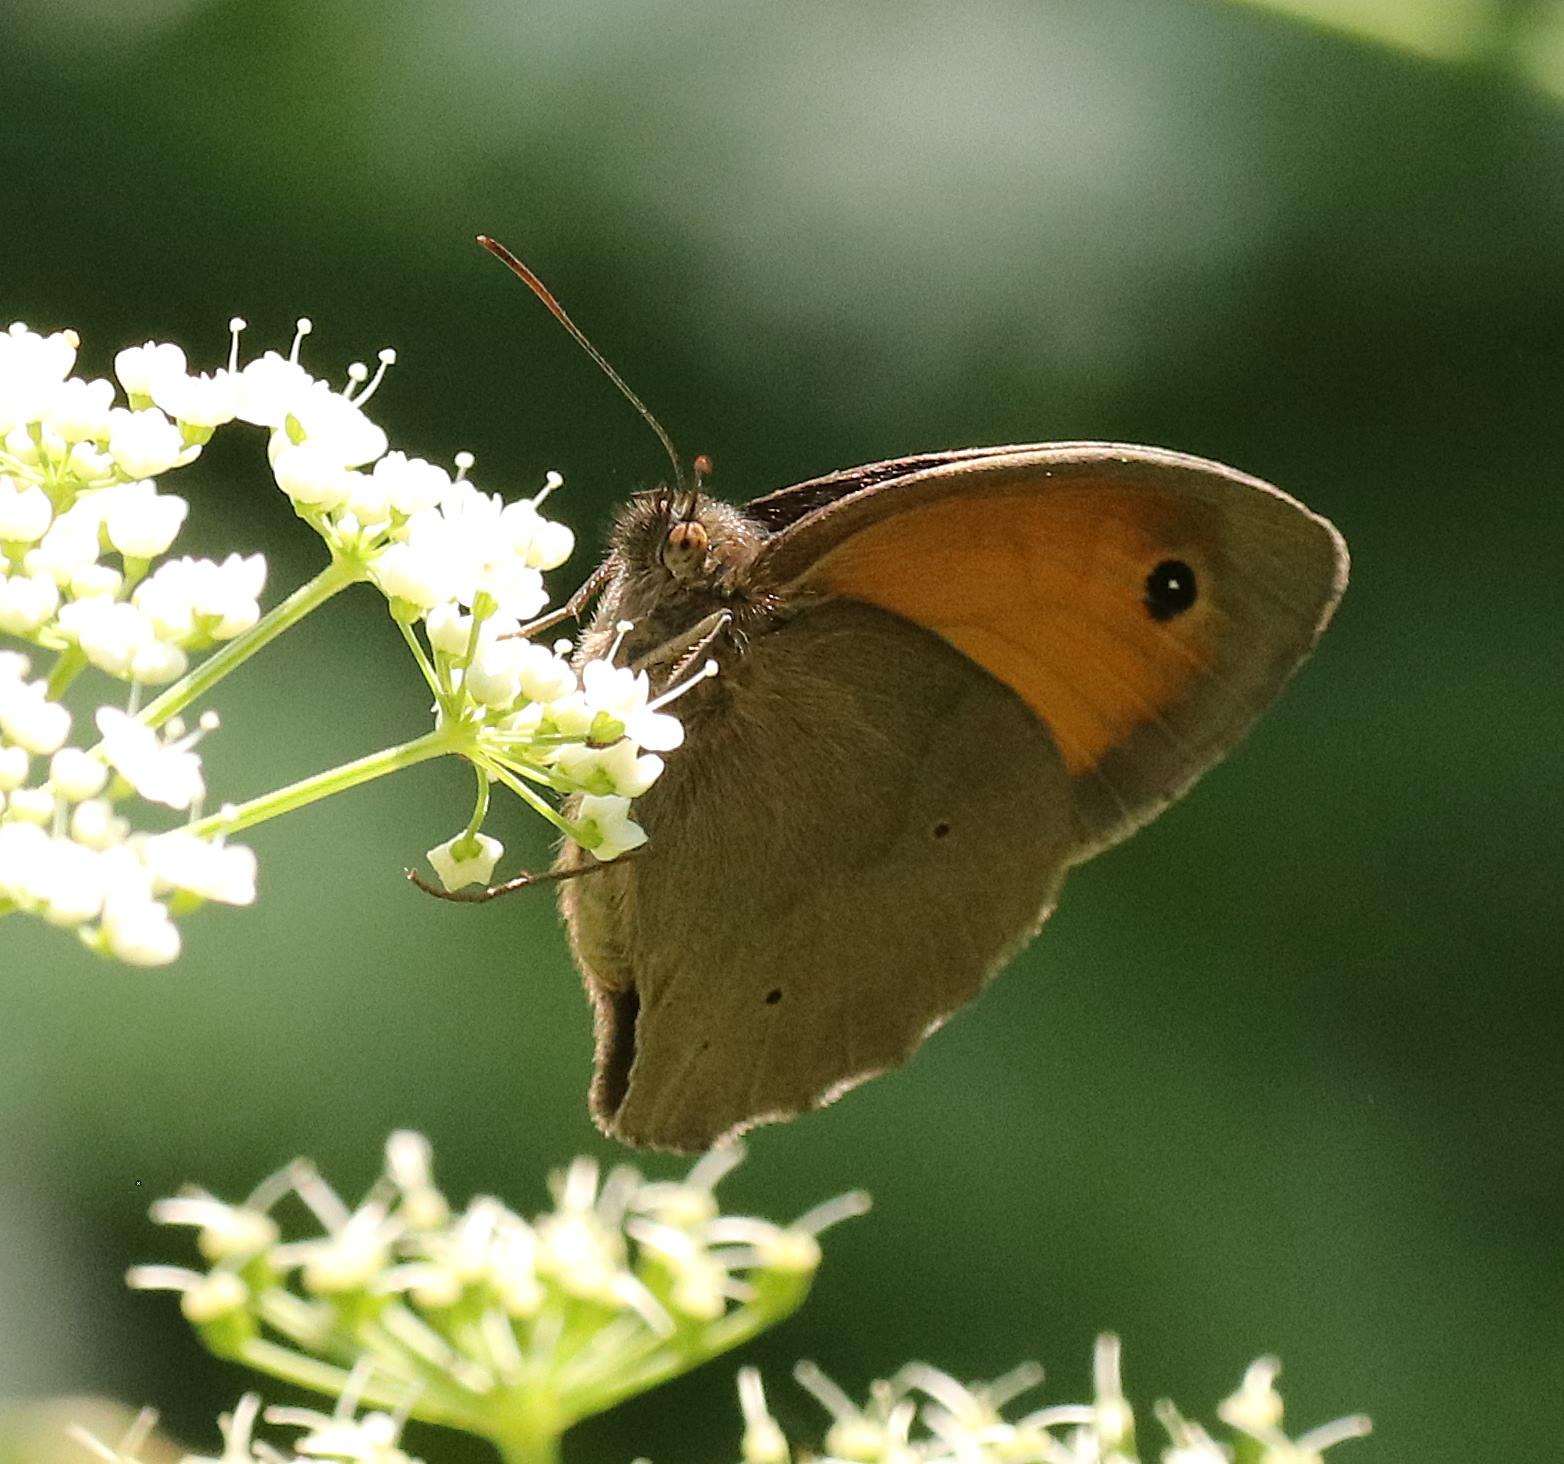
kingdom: Animalia
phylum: Arthropoda
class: Insecta
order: Lepidoptera
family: Nymphalidae
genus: Maniola
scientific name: Maniola jurtina
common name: Græsrandøje
